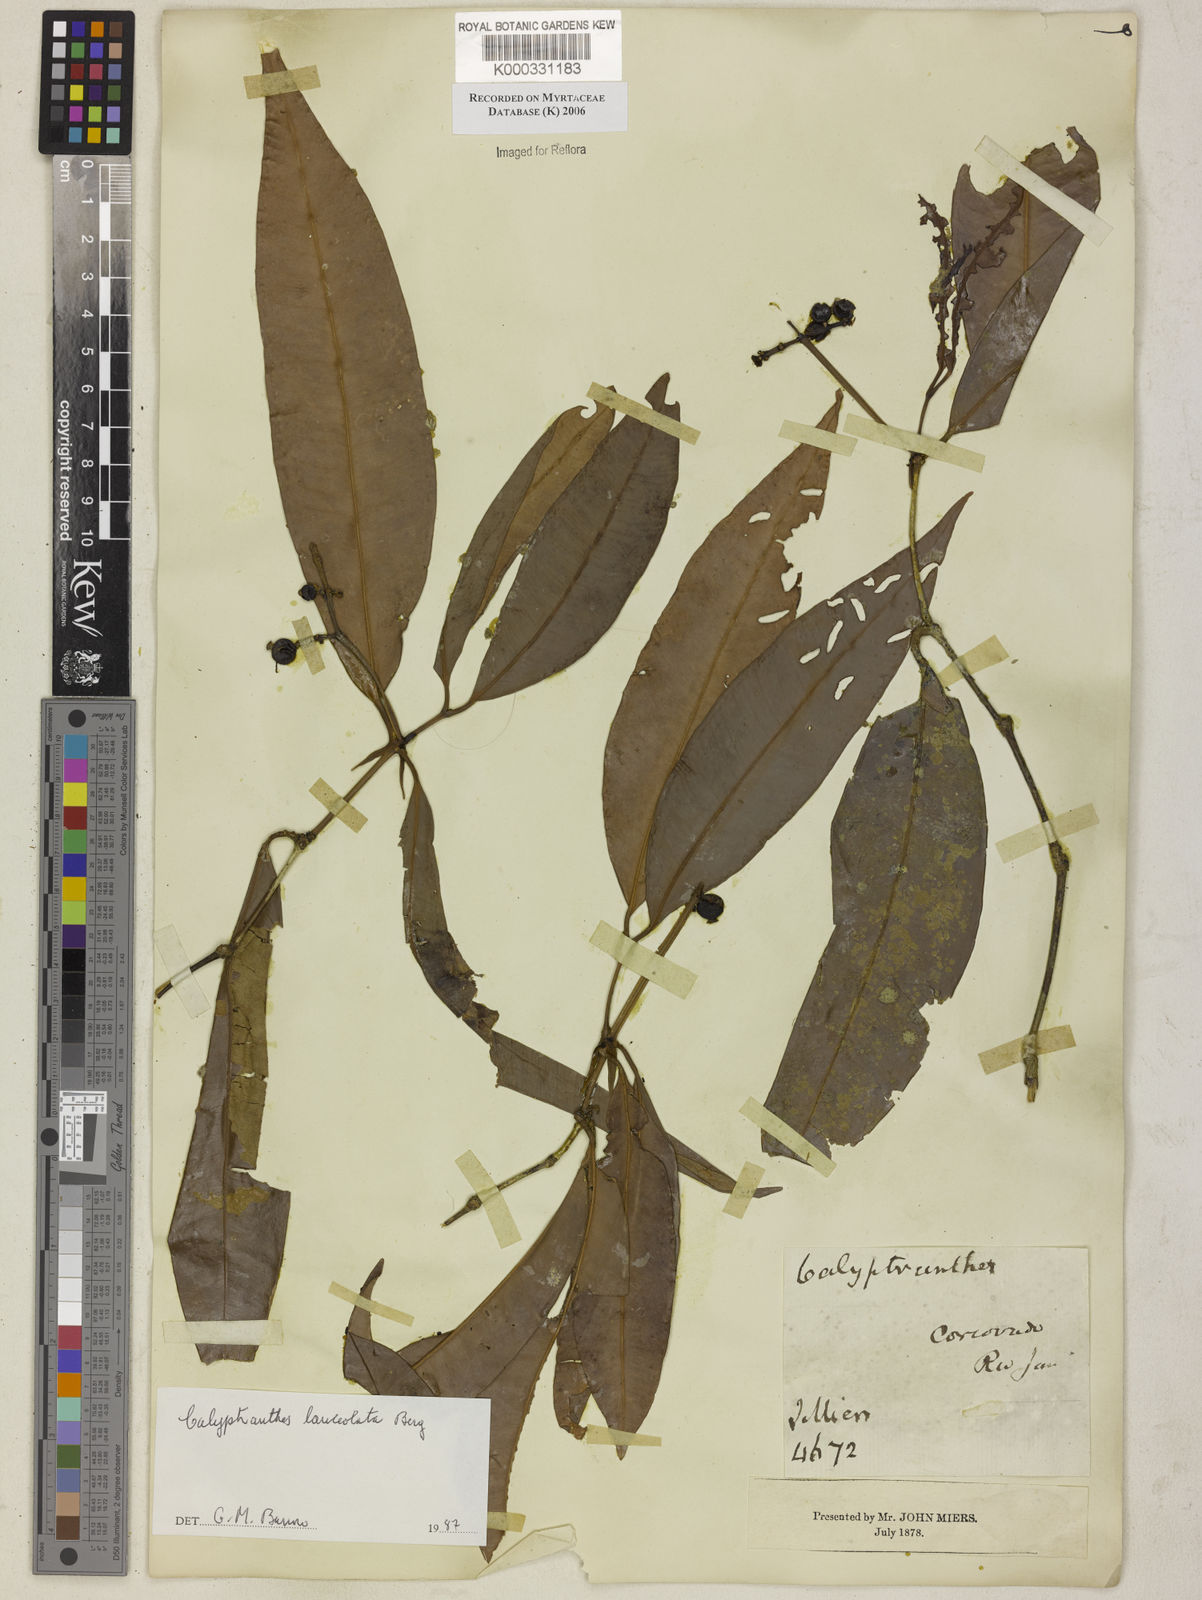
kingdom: Plantae
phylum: Tracheophyta
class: Magnoliopsida
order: Myrtales
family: Myrtaceae
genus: Myrcia
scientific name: Myrcia lonchophylla
